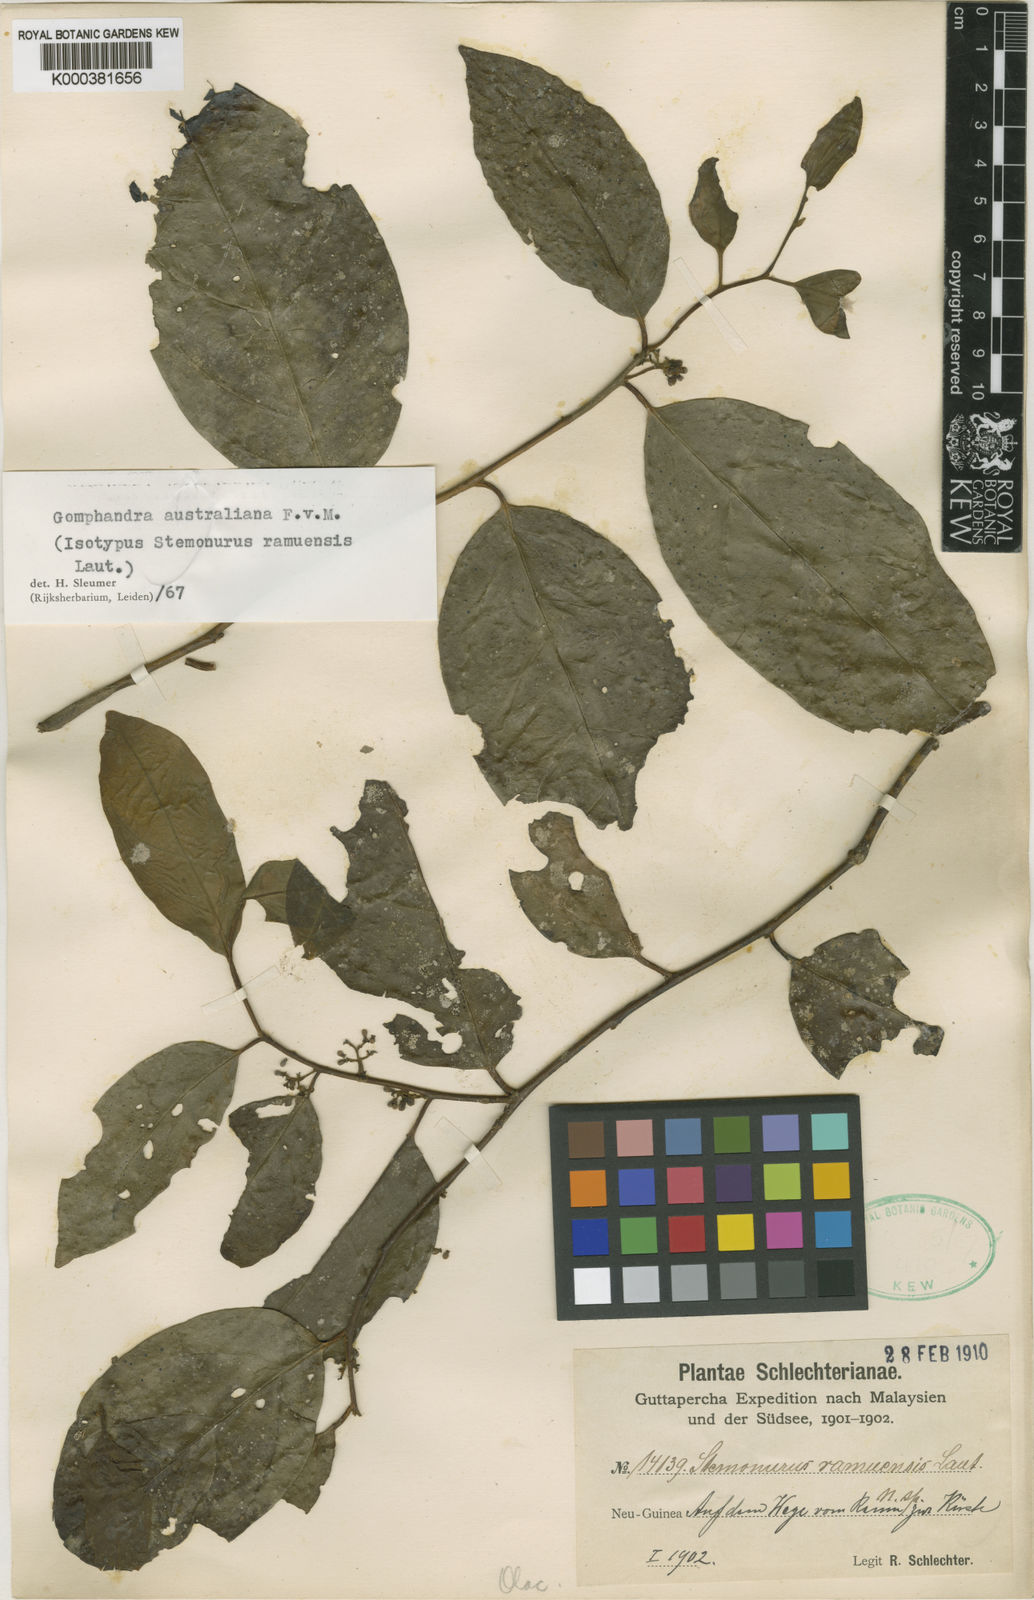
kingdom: Plantae
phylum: Tracheophyta
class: Magnoliopsida
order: Cardiopteridales
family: Stemonuraceae
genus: Gomphandra
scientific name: Gomphandra australiana
